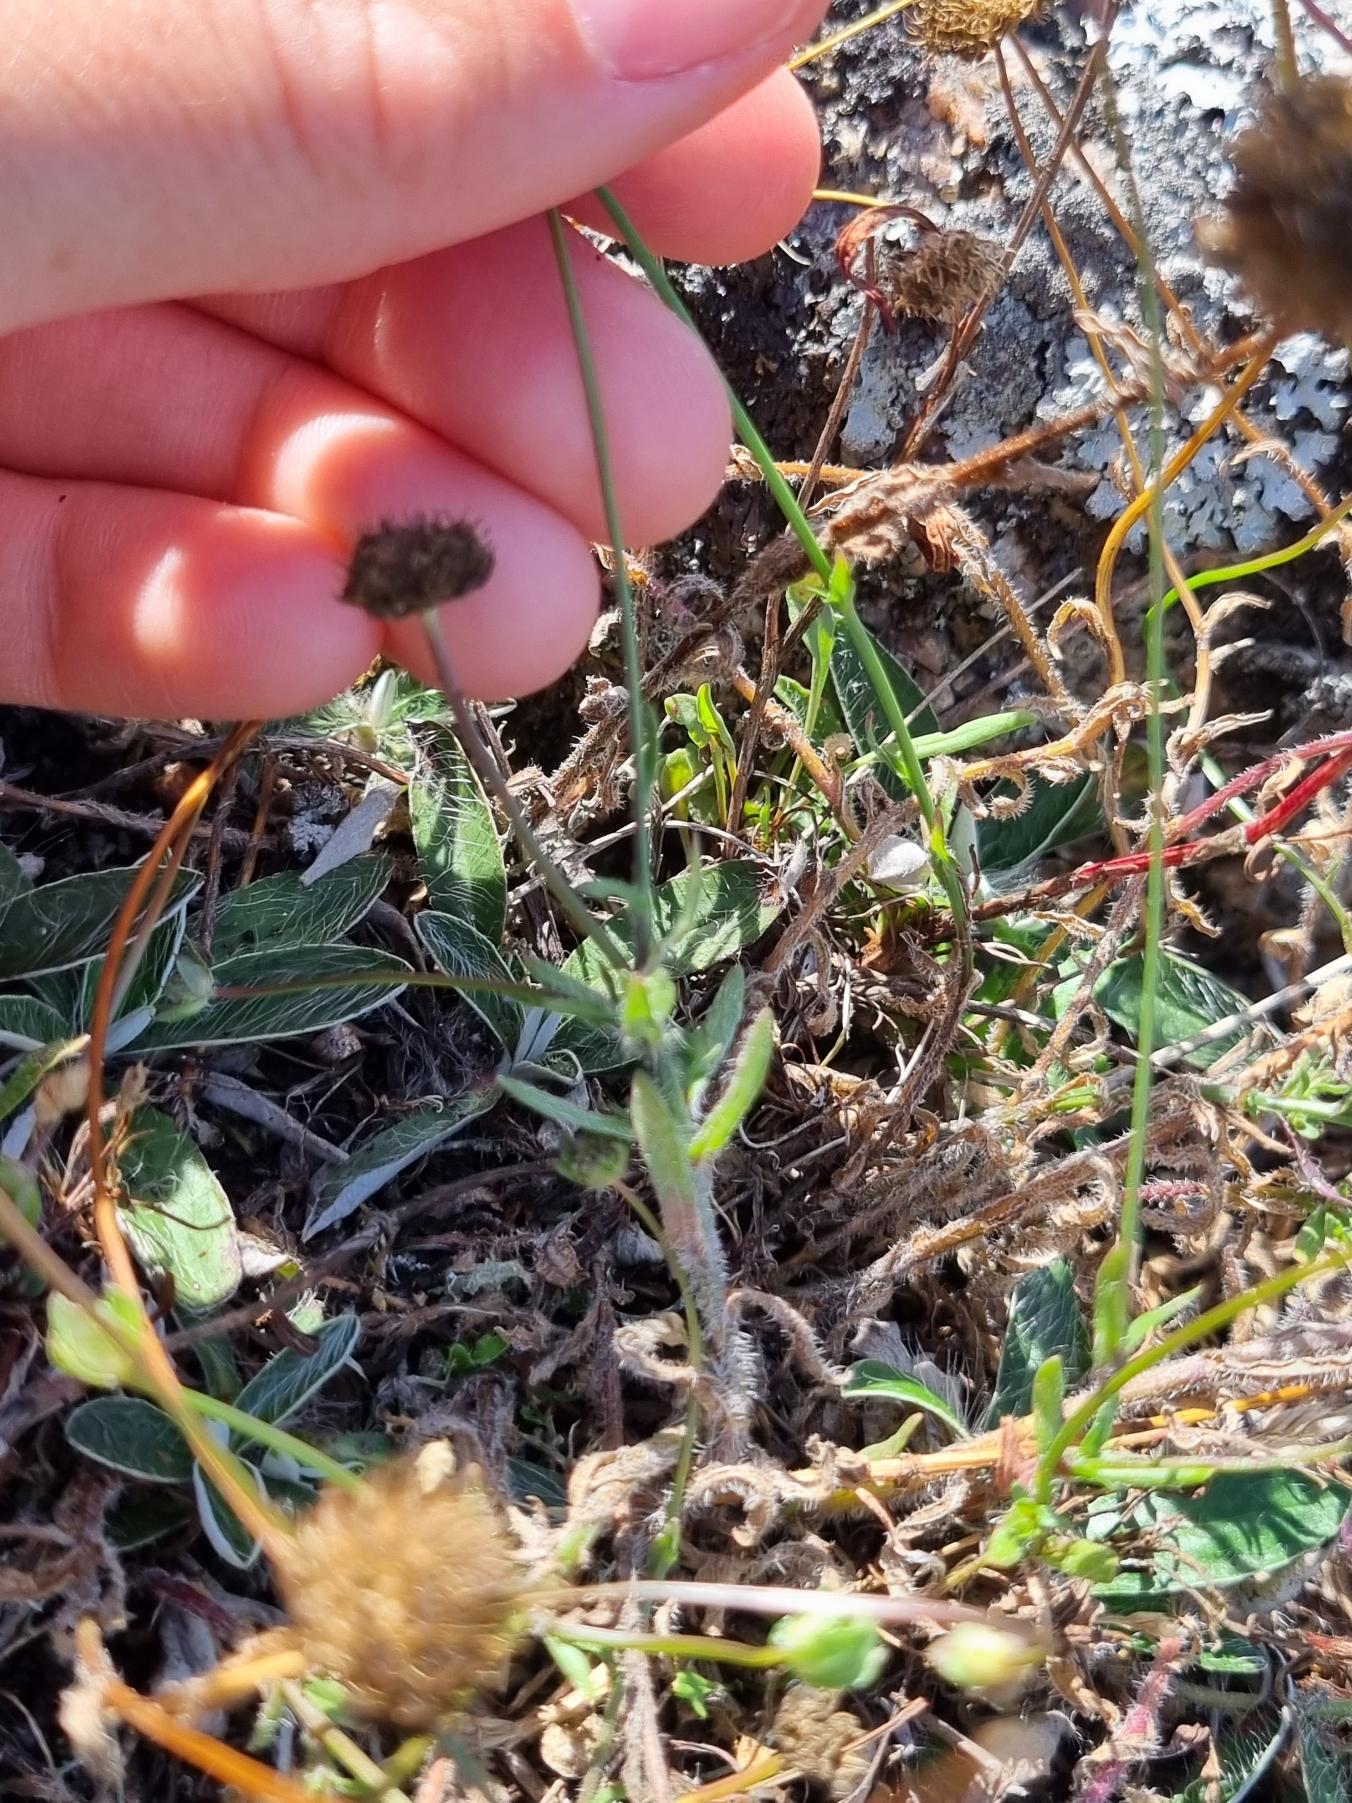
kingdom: Plantae
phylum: Tracheophyta
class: Magnoliopsida
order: Asterales
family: Campanulaceae
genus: Jasione
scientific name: Jasione montana
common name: Blåmunke
